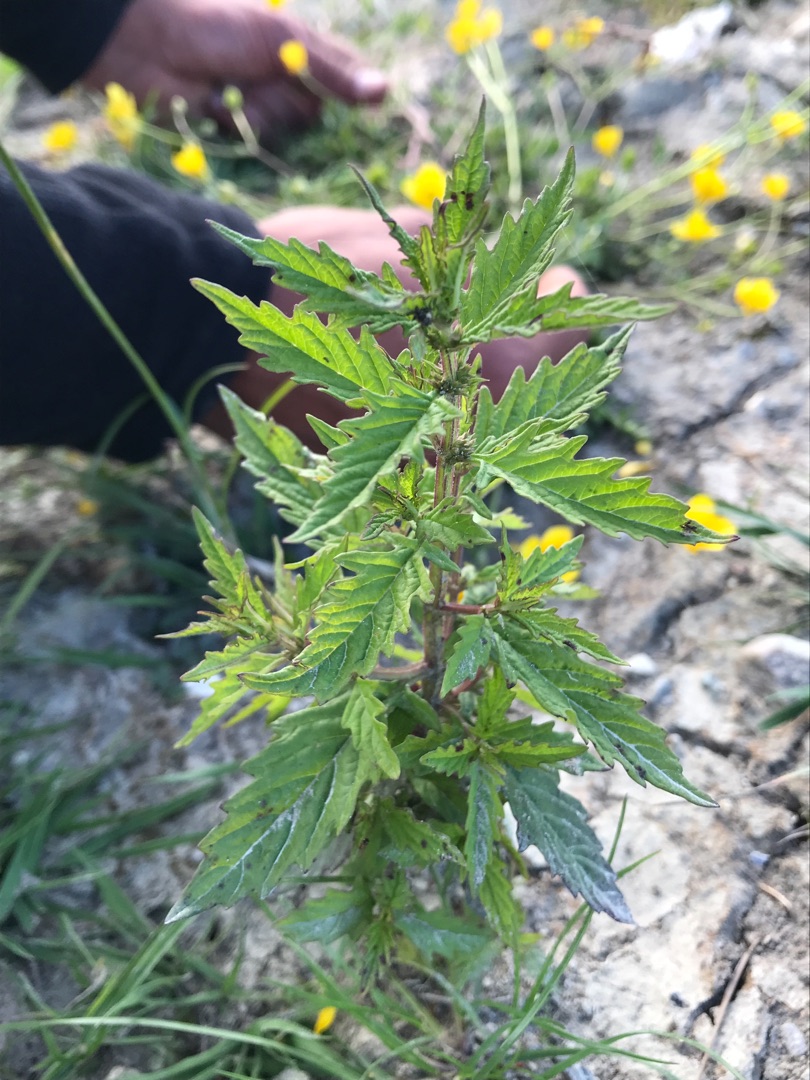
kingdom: Plantae
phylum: Tracheophyta
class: Magnoliopsida
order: Lamiales
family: Lamiaceae
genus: Lycopus
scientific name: Lycopus europaeus
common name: Sværtevæld
